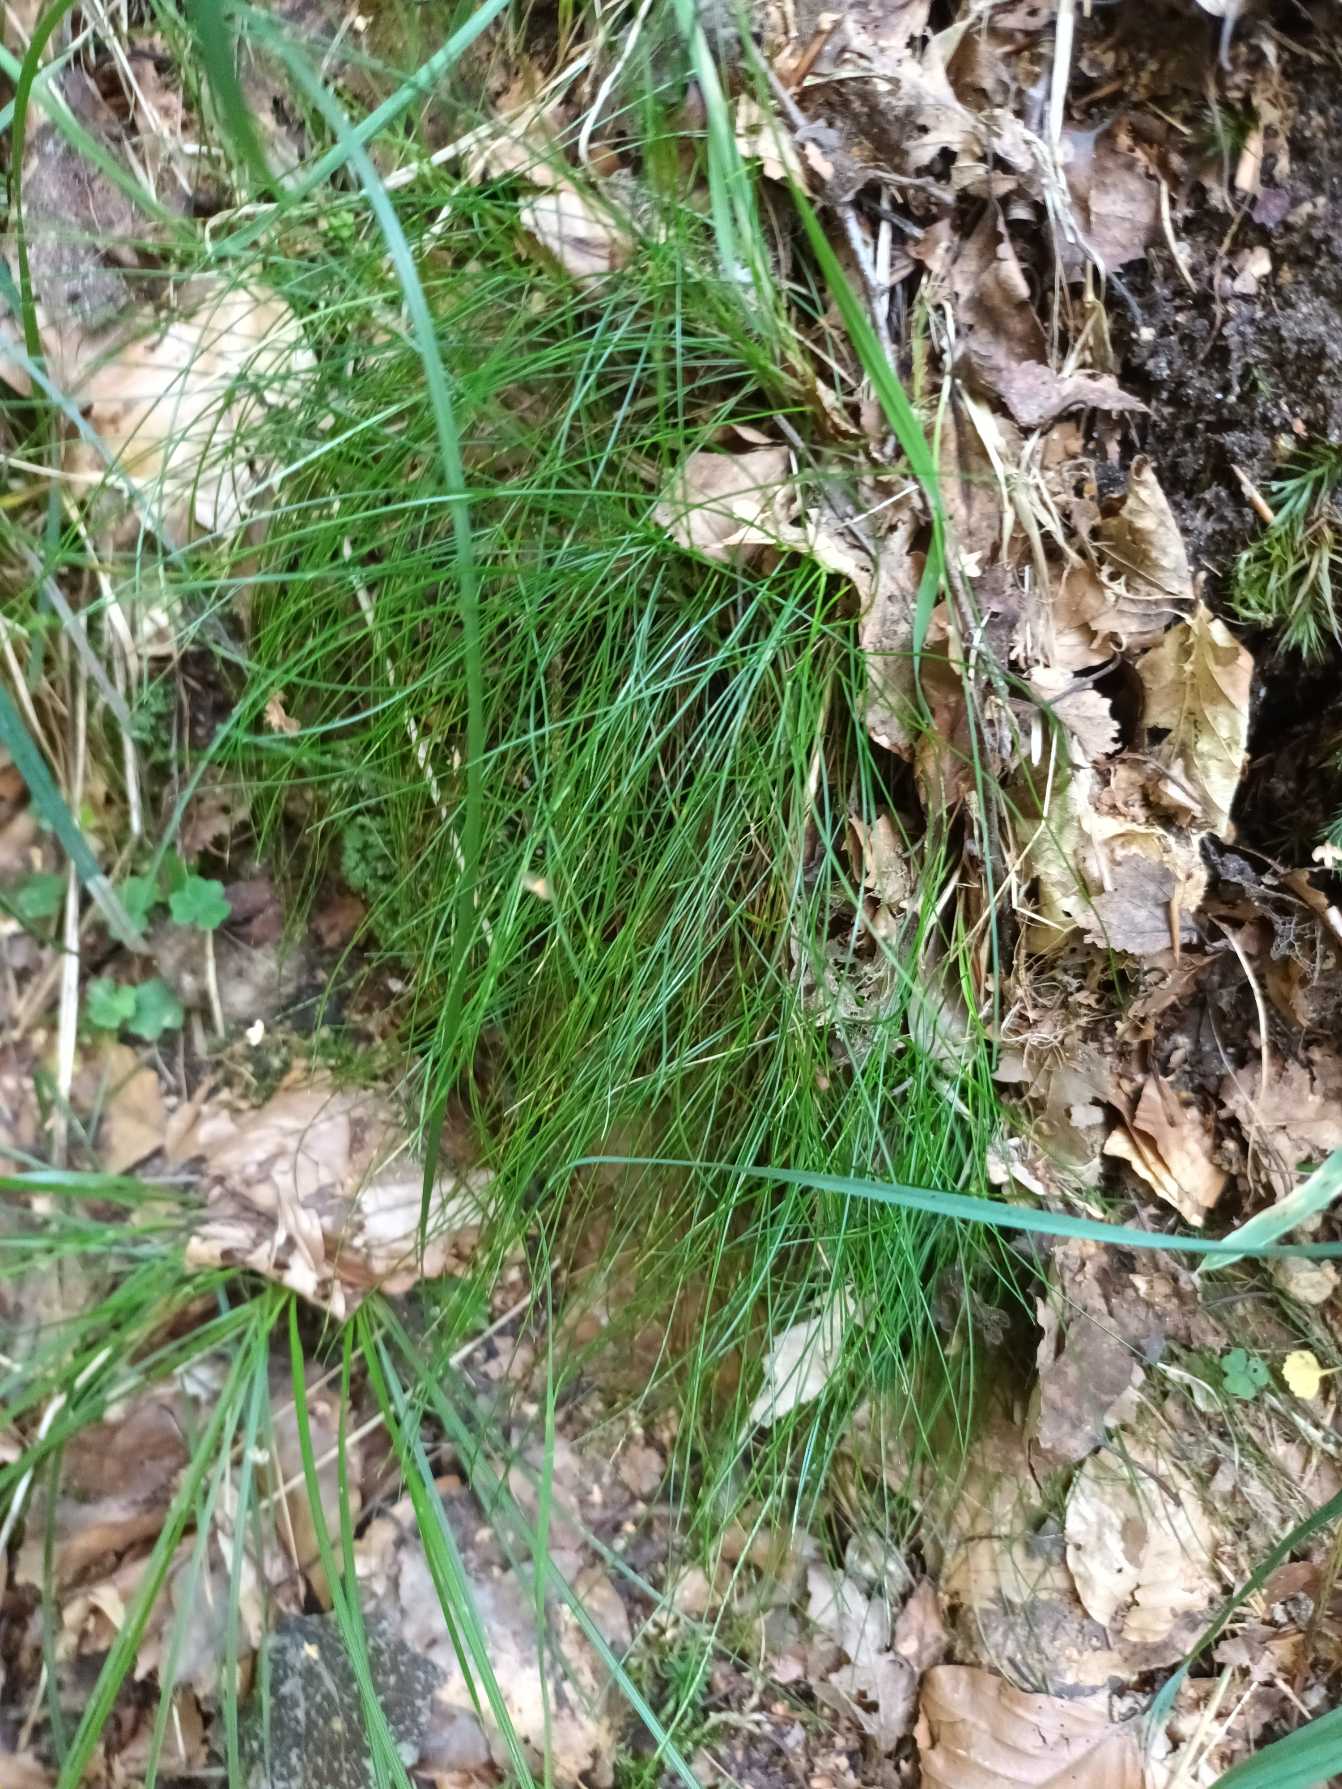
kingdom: Plantae
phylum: Tracheophyta
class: Liliopsida
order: Poales
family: Poaceae
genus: Avenella
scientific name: Avenella flexuosa
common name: Bølget bunke
